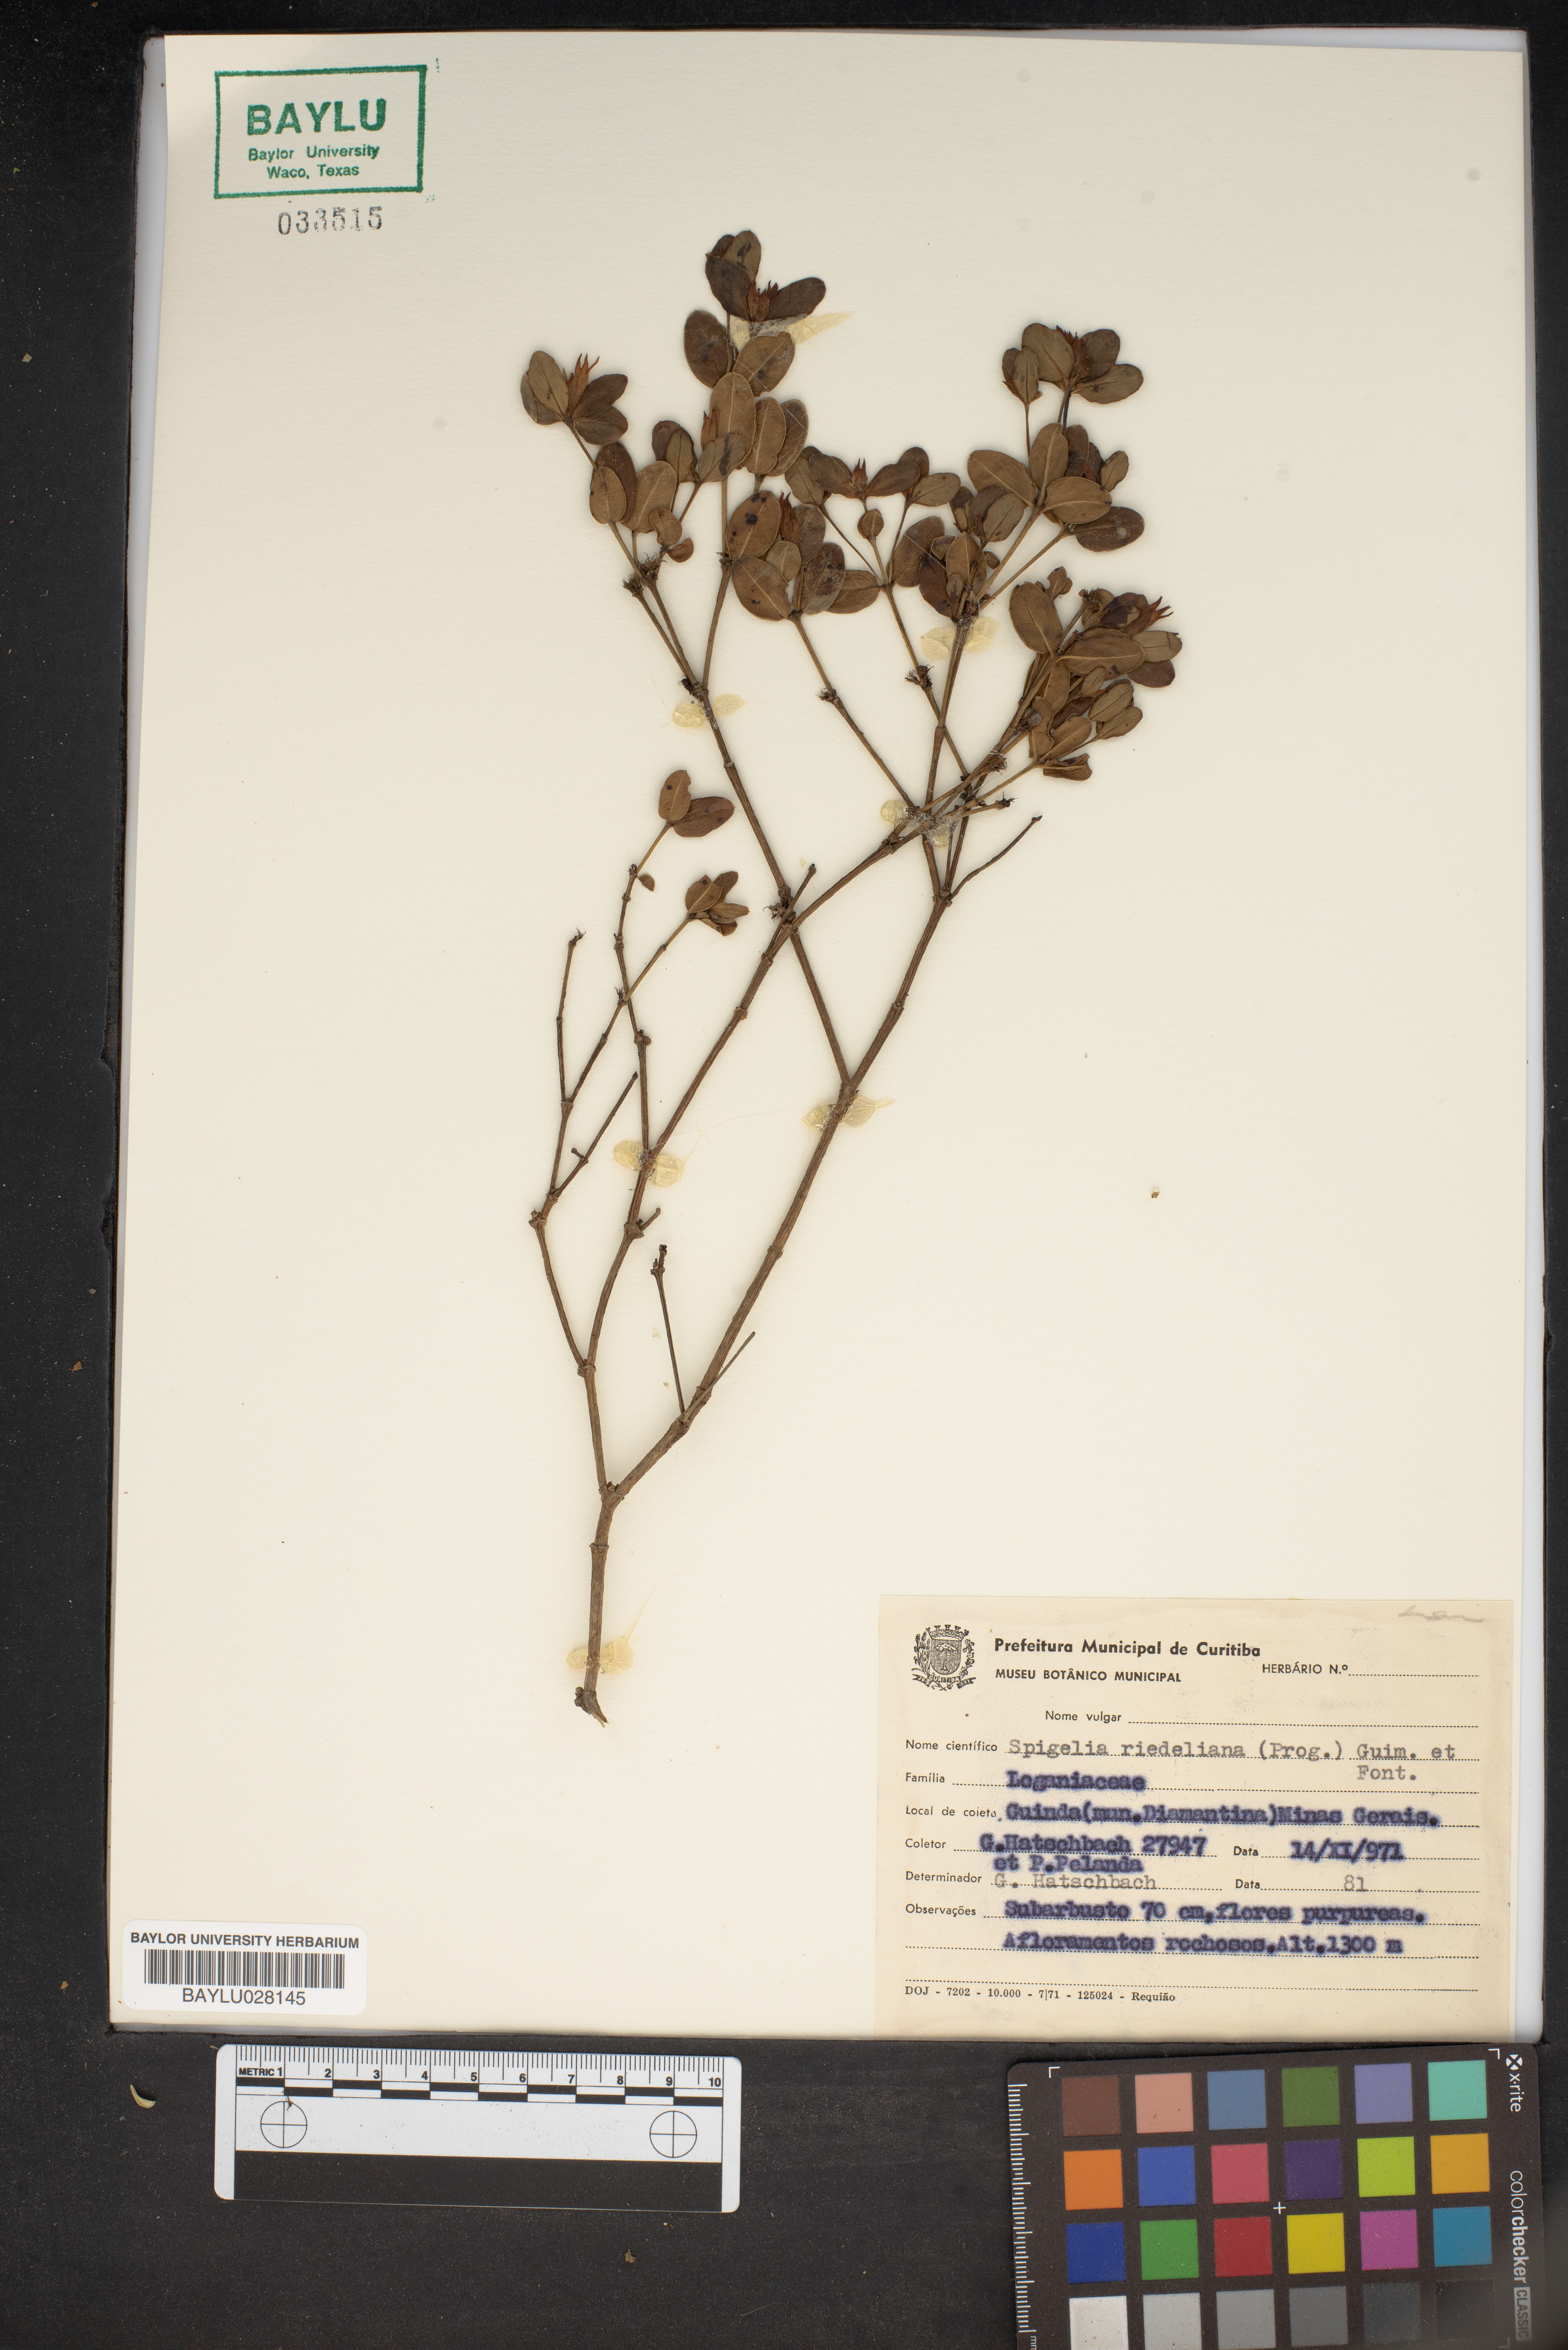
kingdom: Plantae
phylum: Tracheophyta
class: Magnoliopsida
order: Gentianales
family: Loganiaceae
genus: Spigelia
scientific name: Spigelia riedeliana
